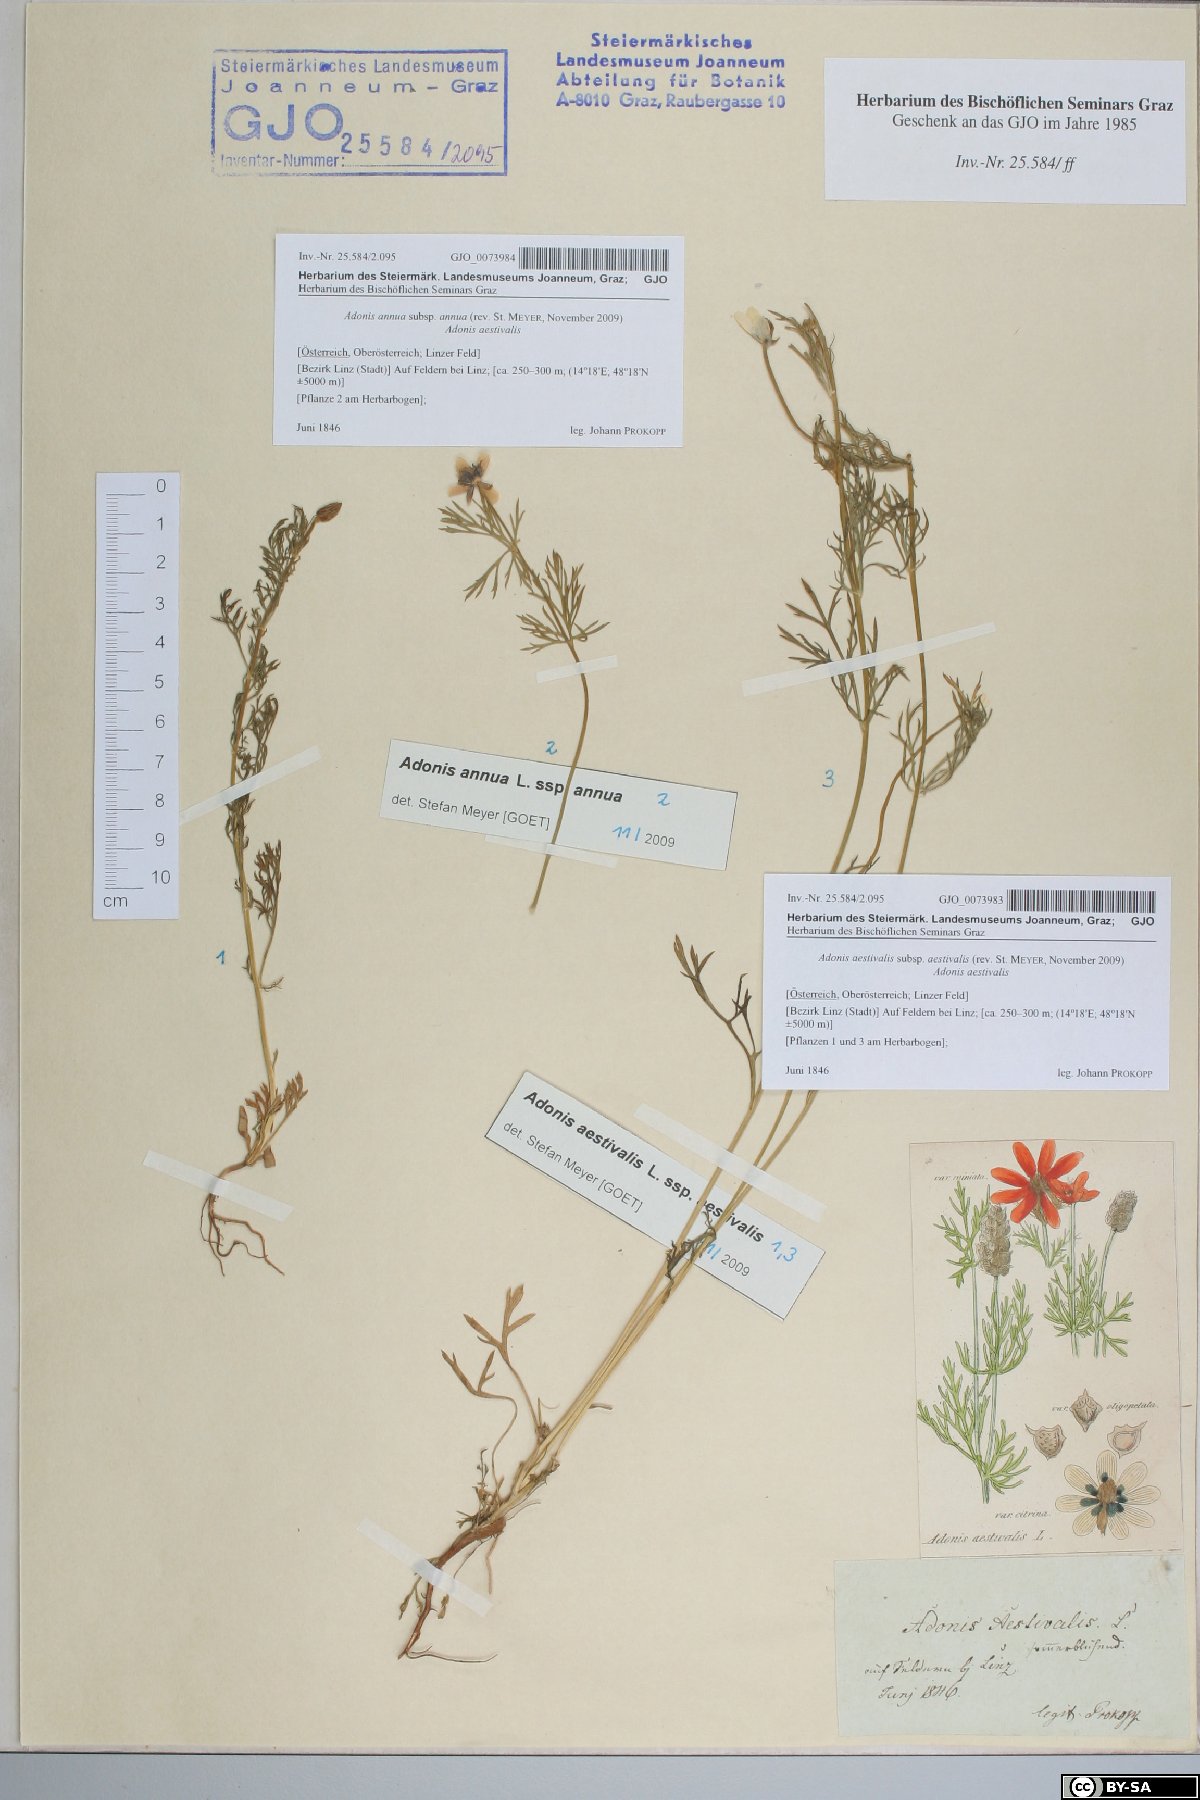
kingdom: Plantae
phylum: Tracheophyta
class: Magnoliopsida
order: Ranunculales
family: Ranunculaceae
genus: Adonis
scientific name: Adonis aestivalis
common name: Summer pheasant's-eye
